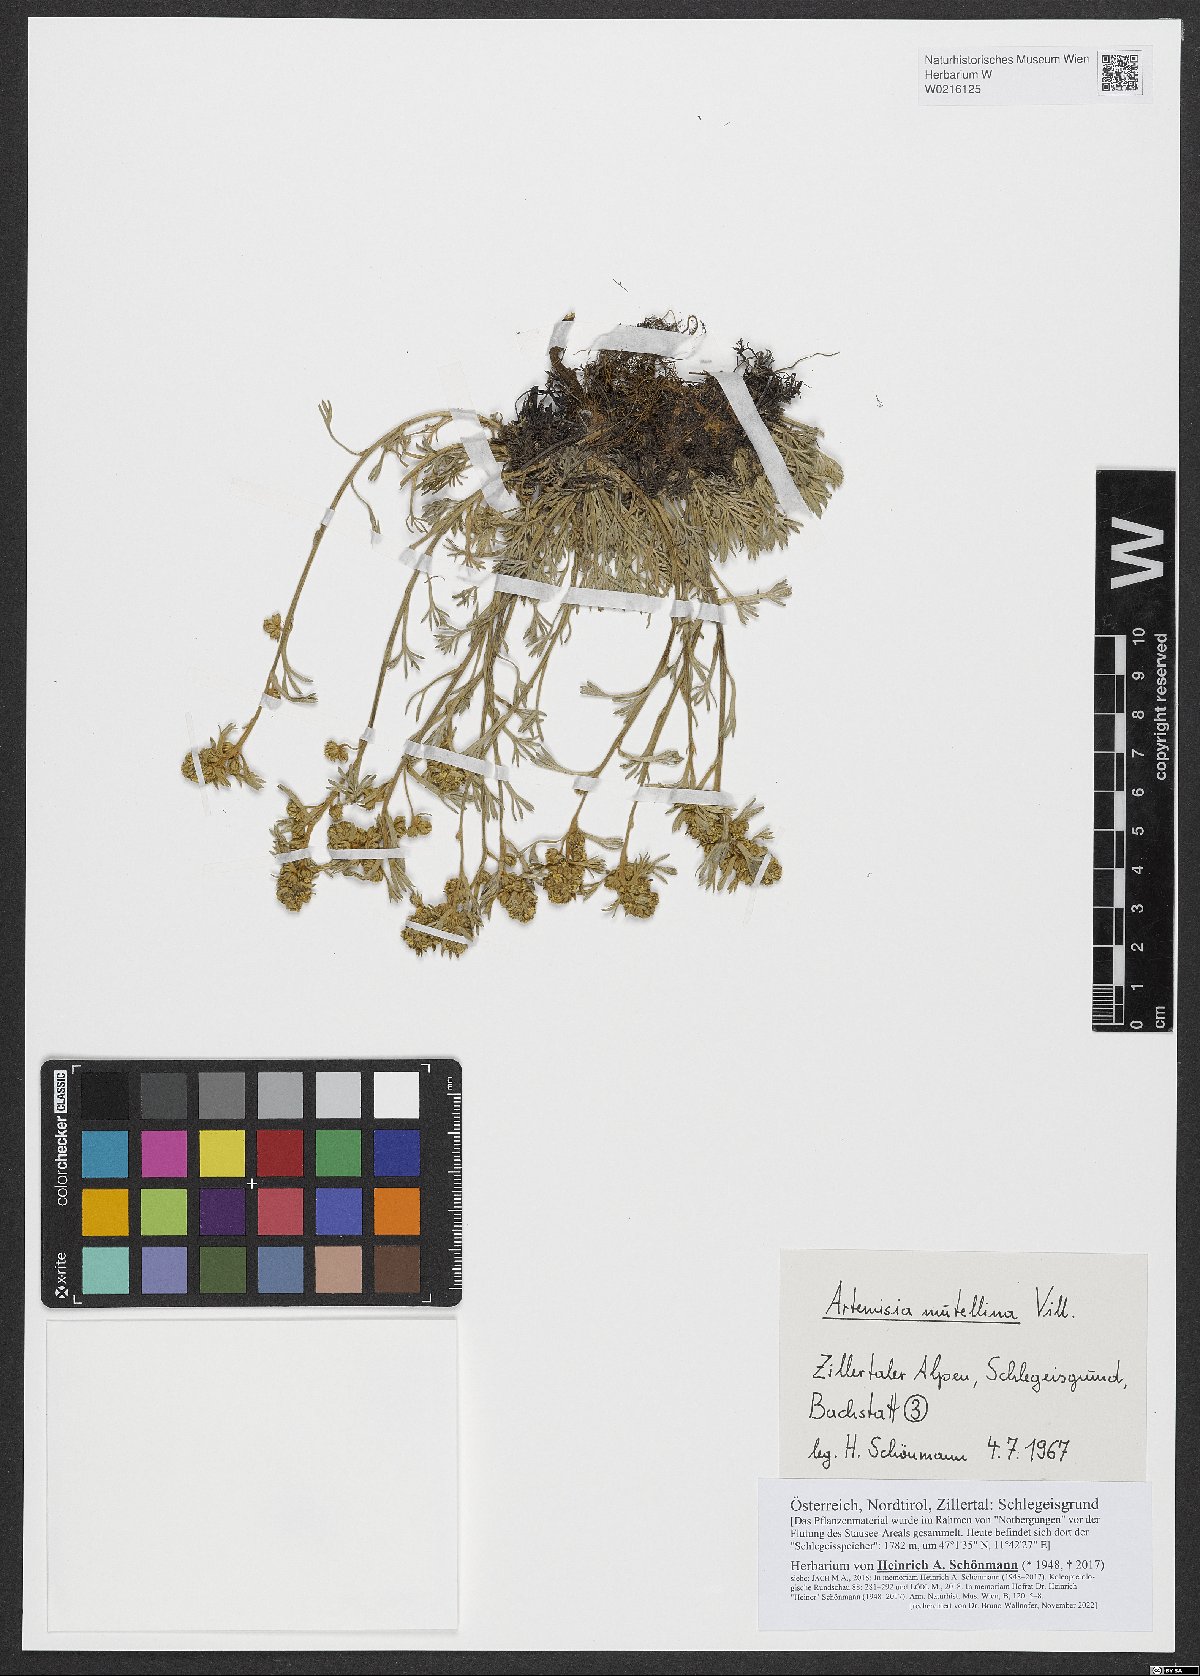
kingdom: Plantae
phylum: Tracheophyta
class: Magnoliopsida
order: Asterales
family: Asteraceae
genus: Artemisia
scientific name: Artemisia mutellina
